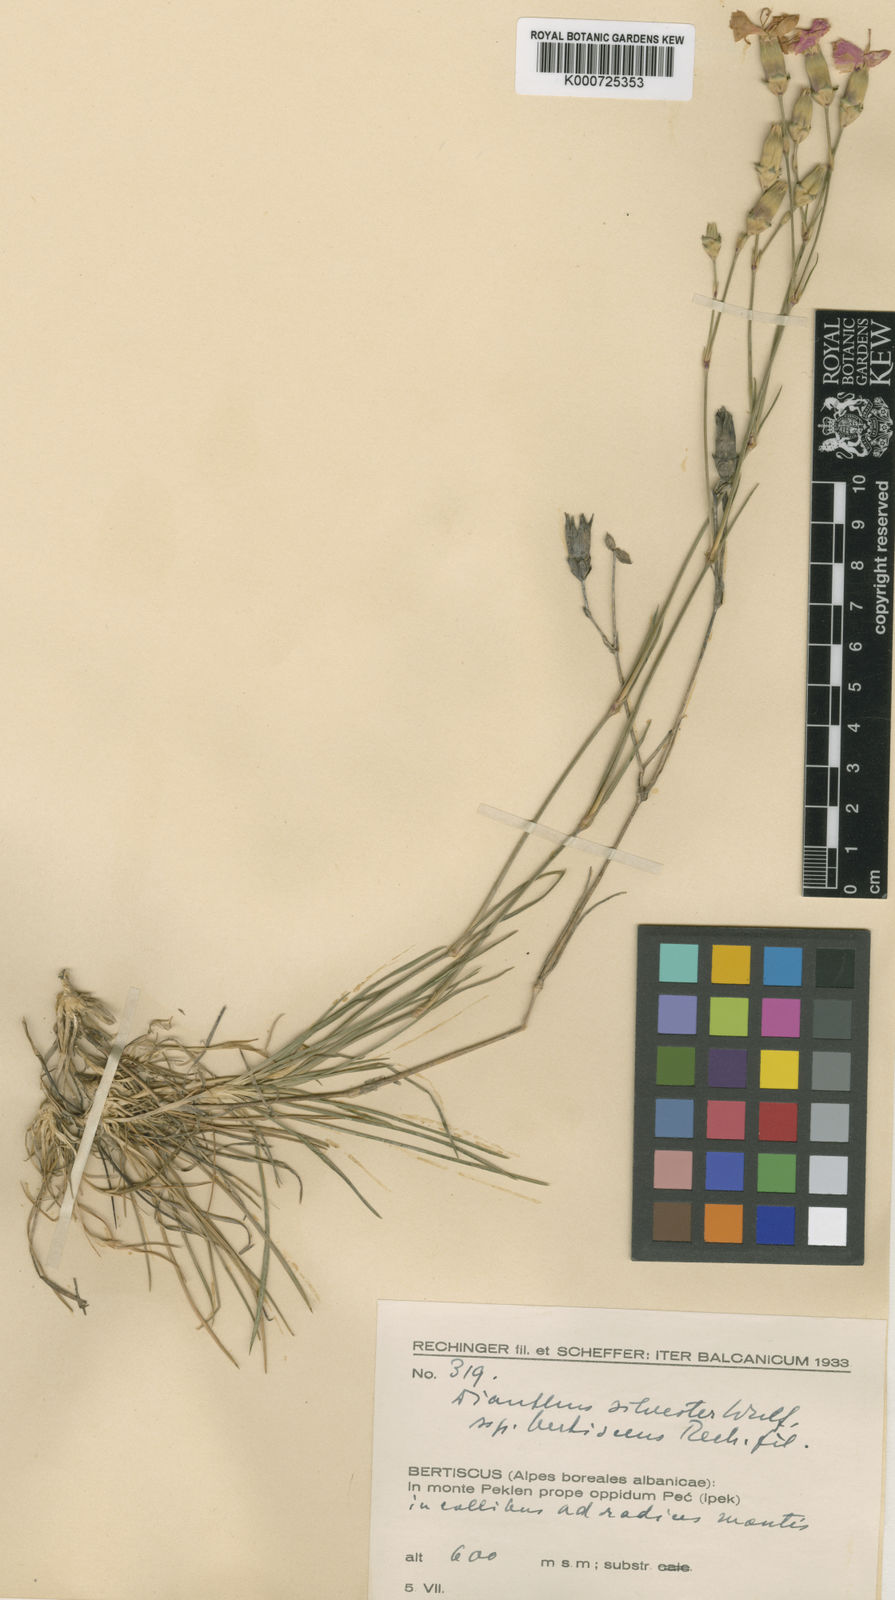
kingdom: Plantae
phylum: Tracheophyta
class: Magnoliopsida
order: Caryophyllales
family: Caryophyllaceae
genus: Dianthus
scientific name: Dianthus sylvestris
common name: Wood pink
